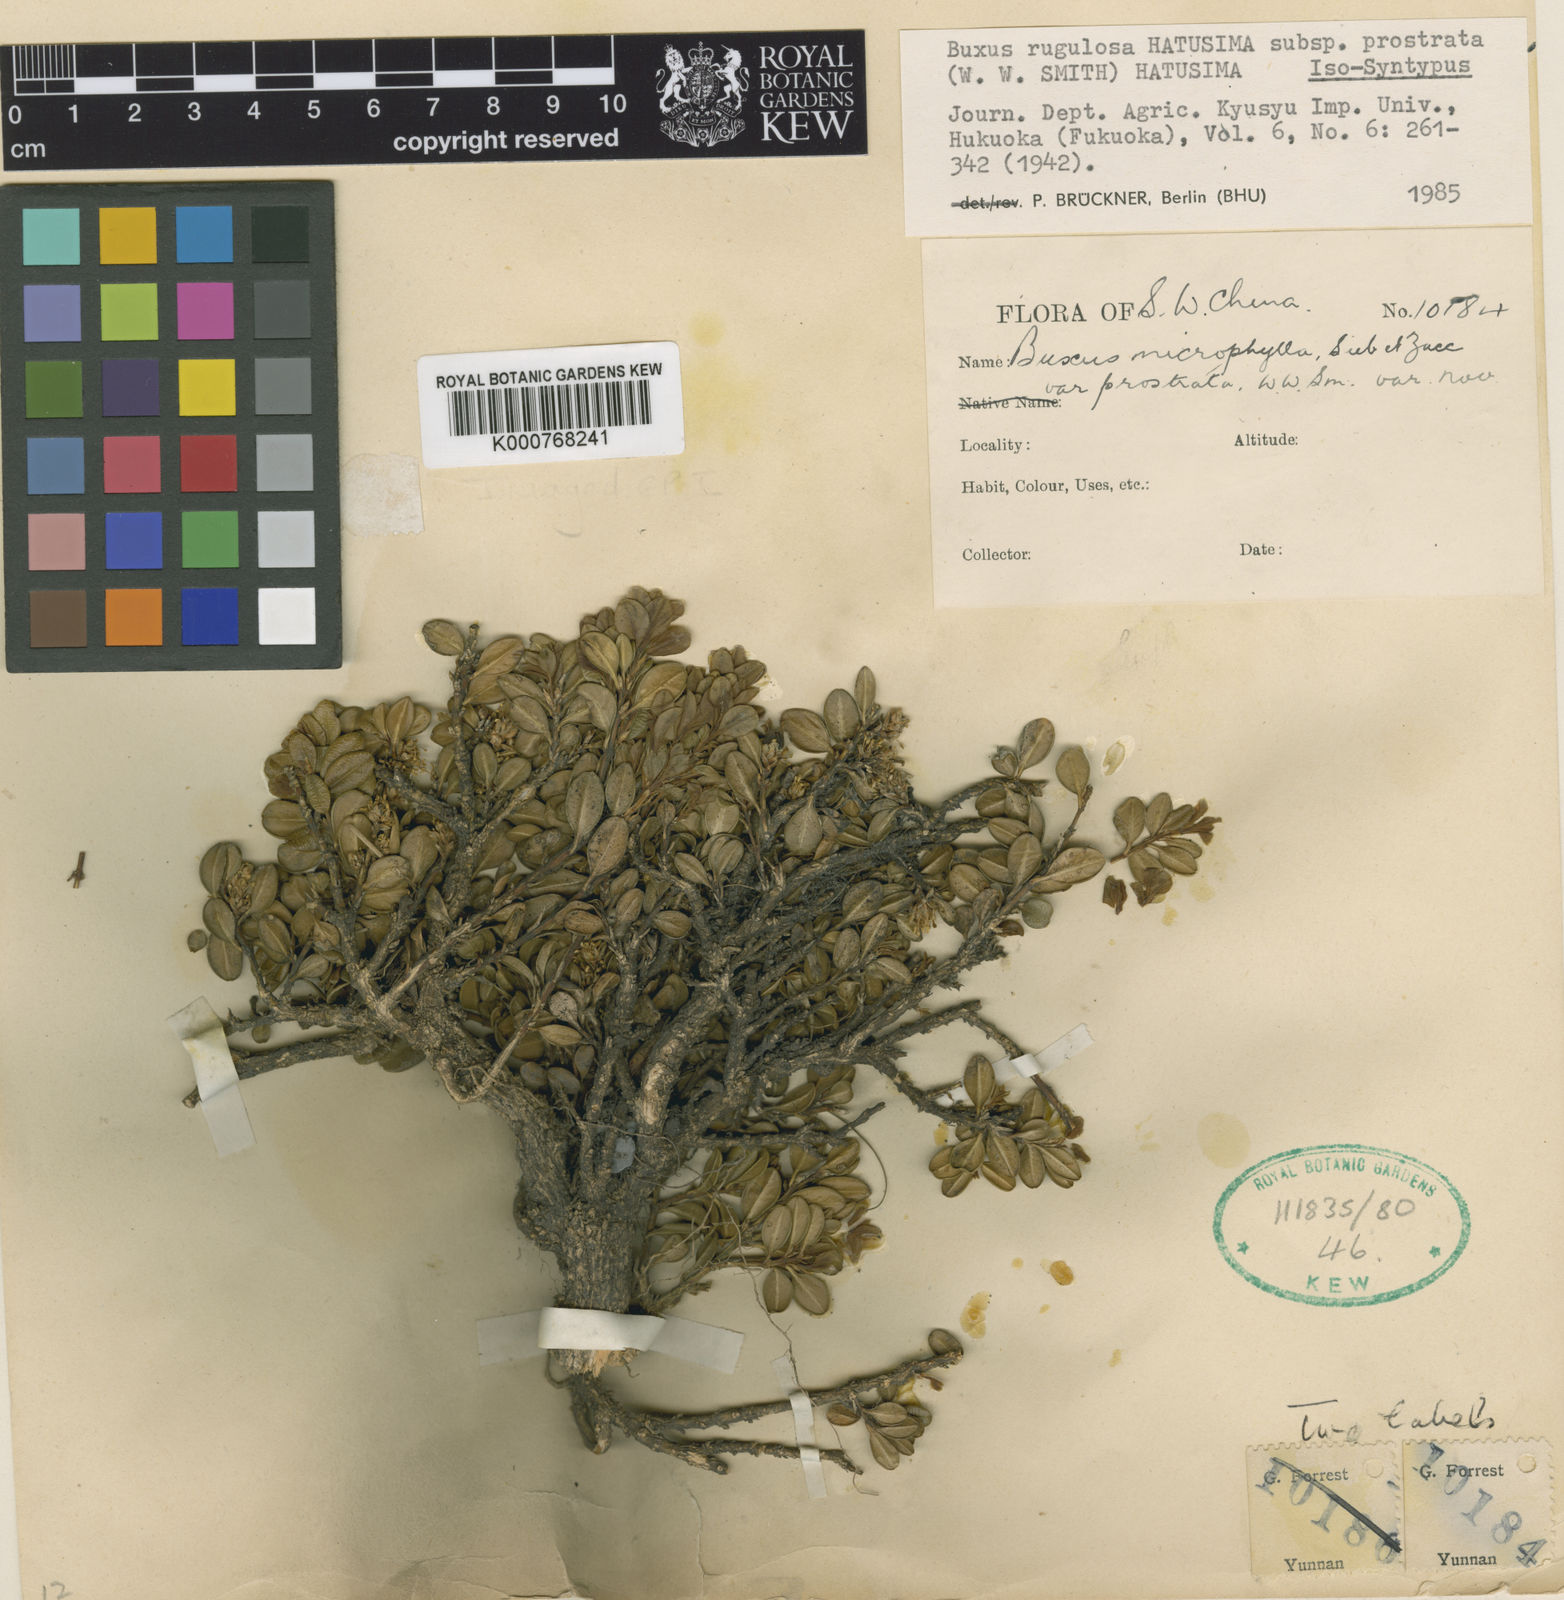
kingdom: Plantae
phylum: Tracheophyta
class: Magnoliopsida
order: Buxales
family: Buxaceae
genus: Buxus
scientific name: Buxus rugulosa
